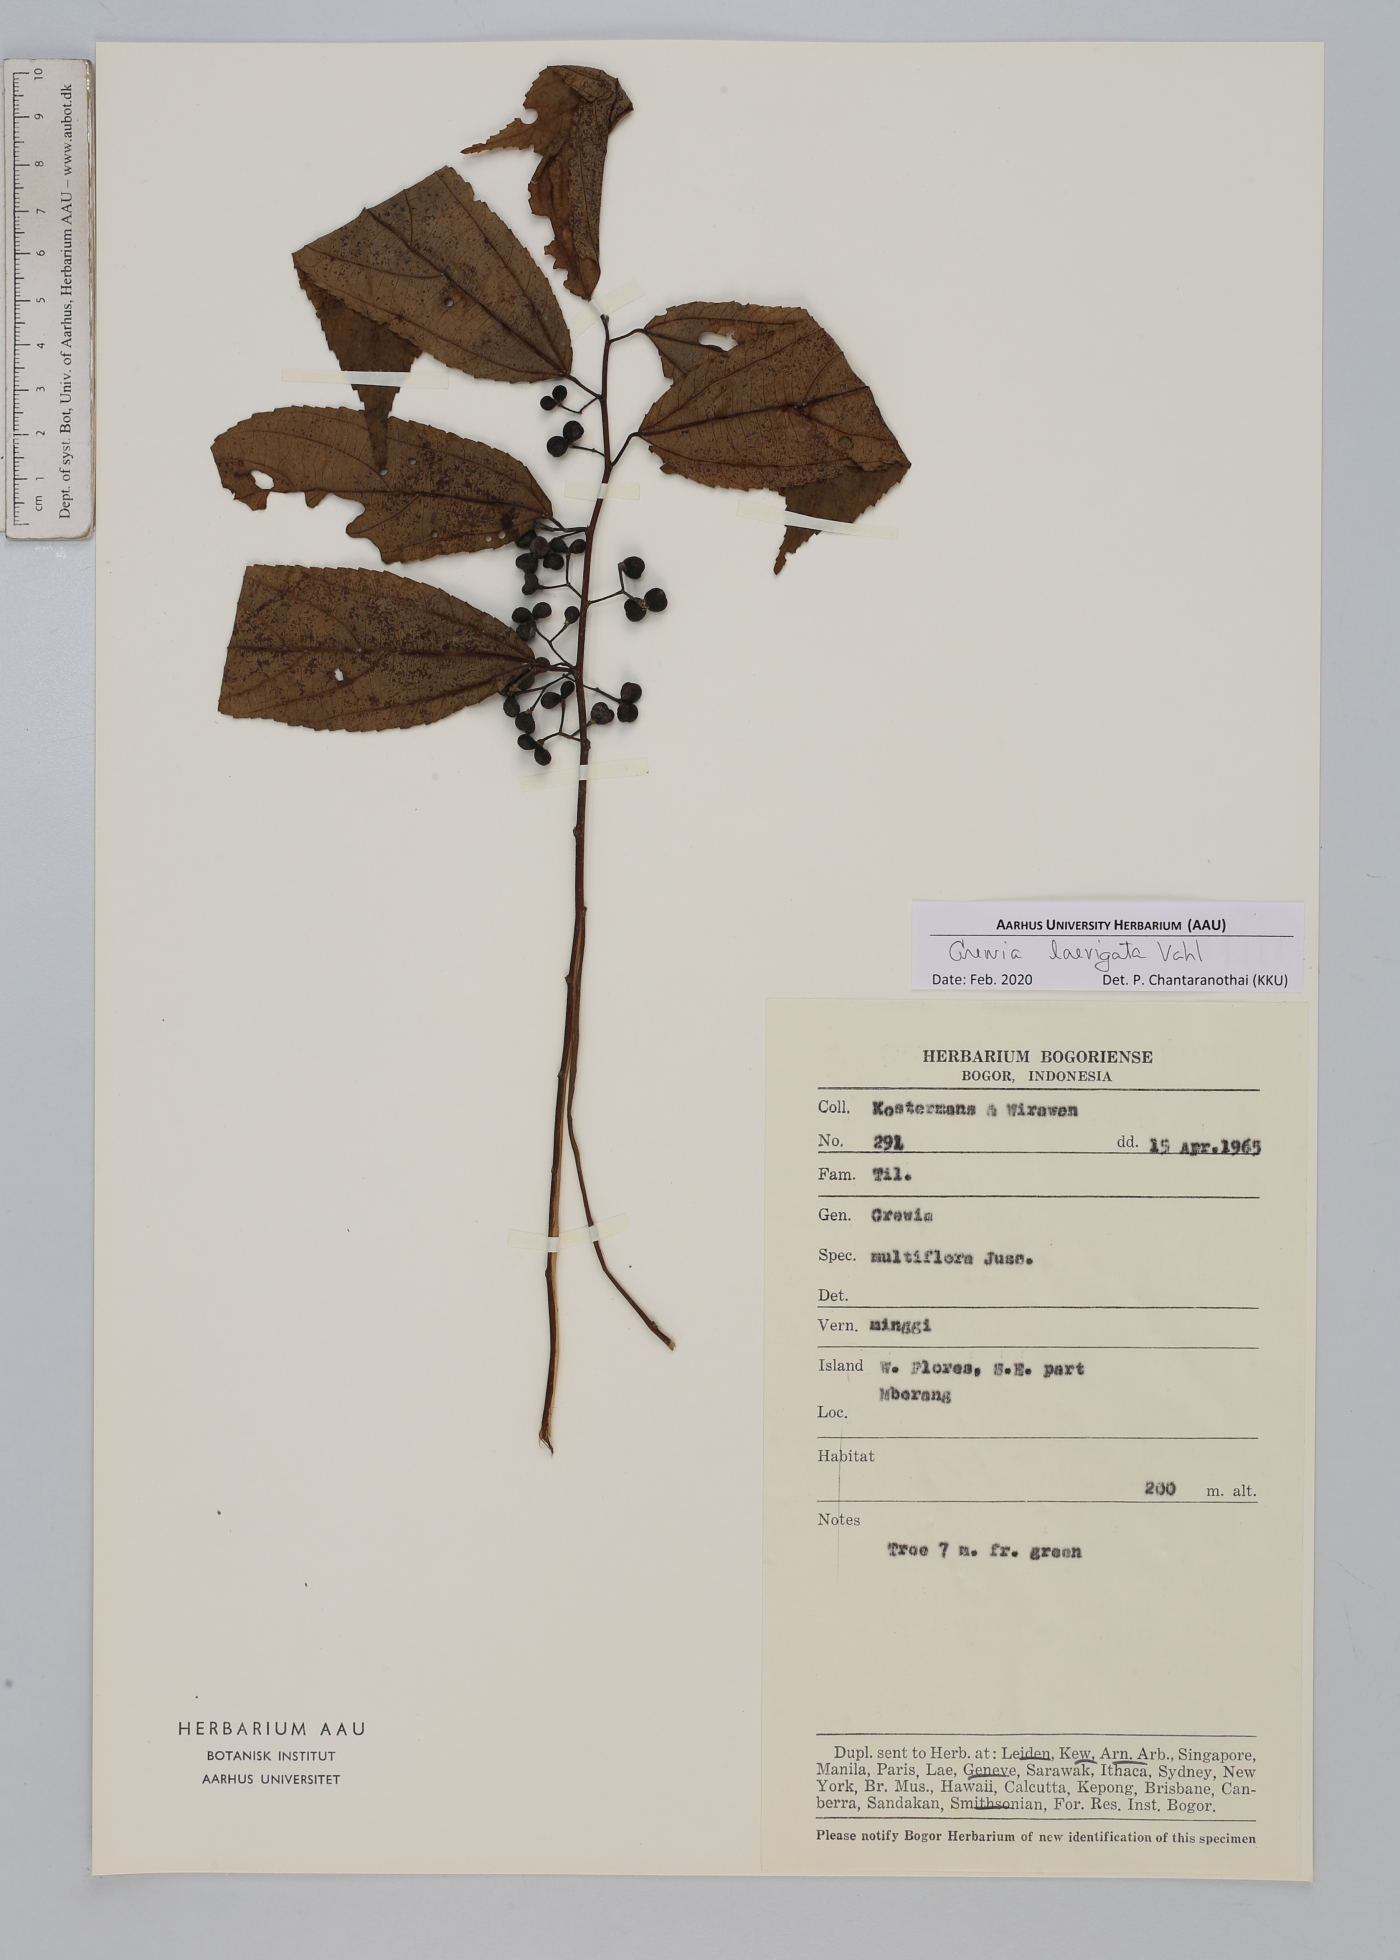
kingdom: Plantae
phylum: Tracheophyta
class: Magnoliopsida
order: Malvales
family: Malvaceae
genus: Grewia
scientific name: Grewia laevigata
